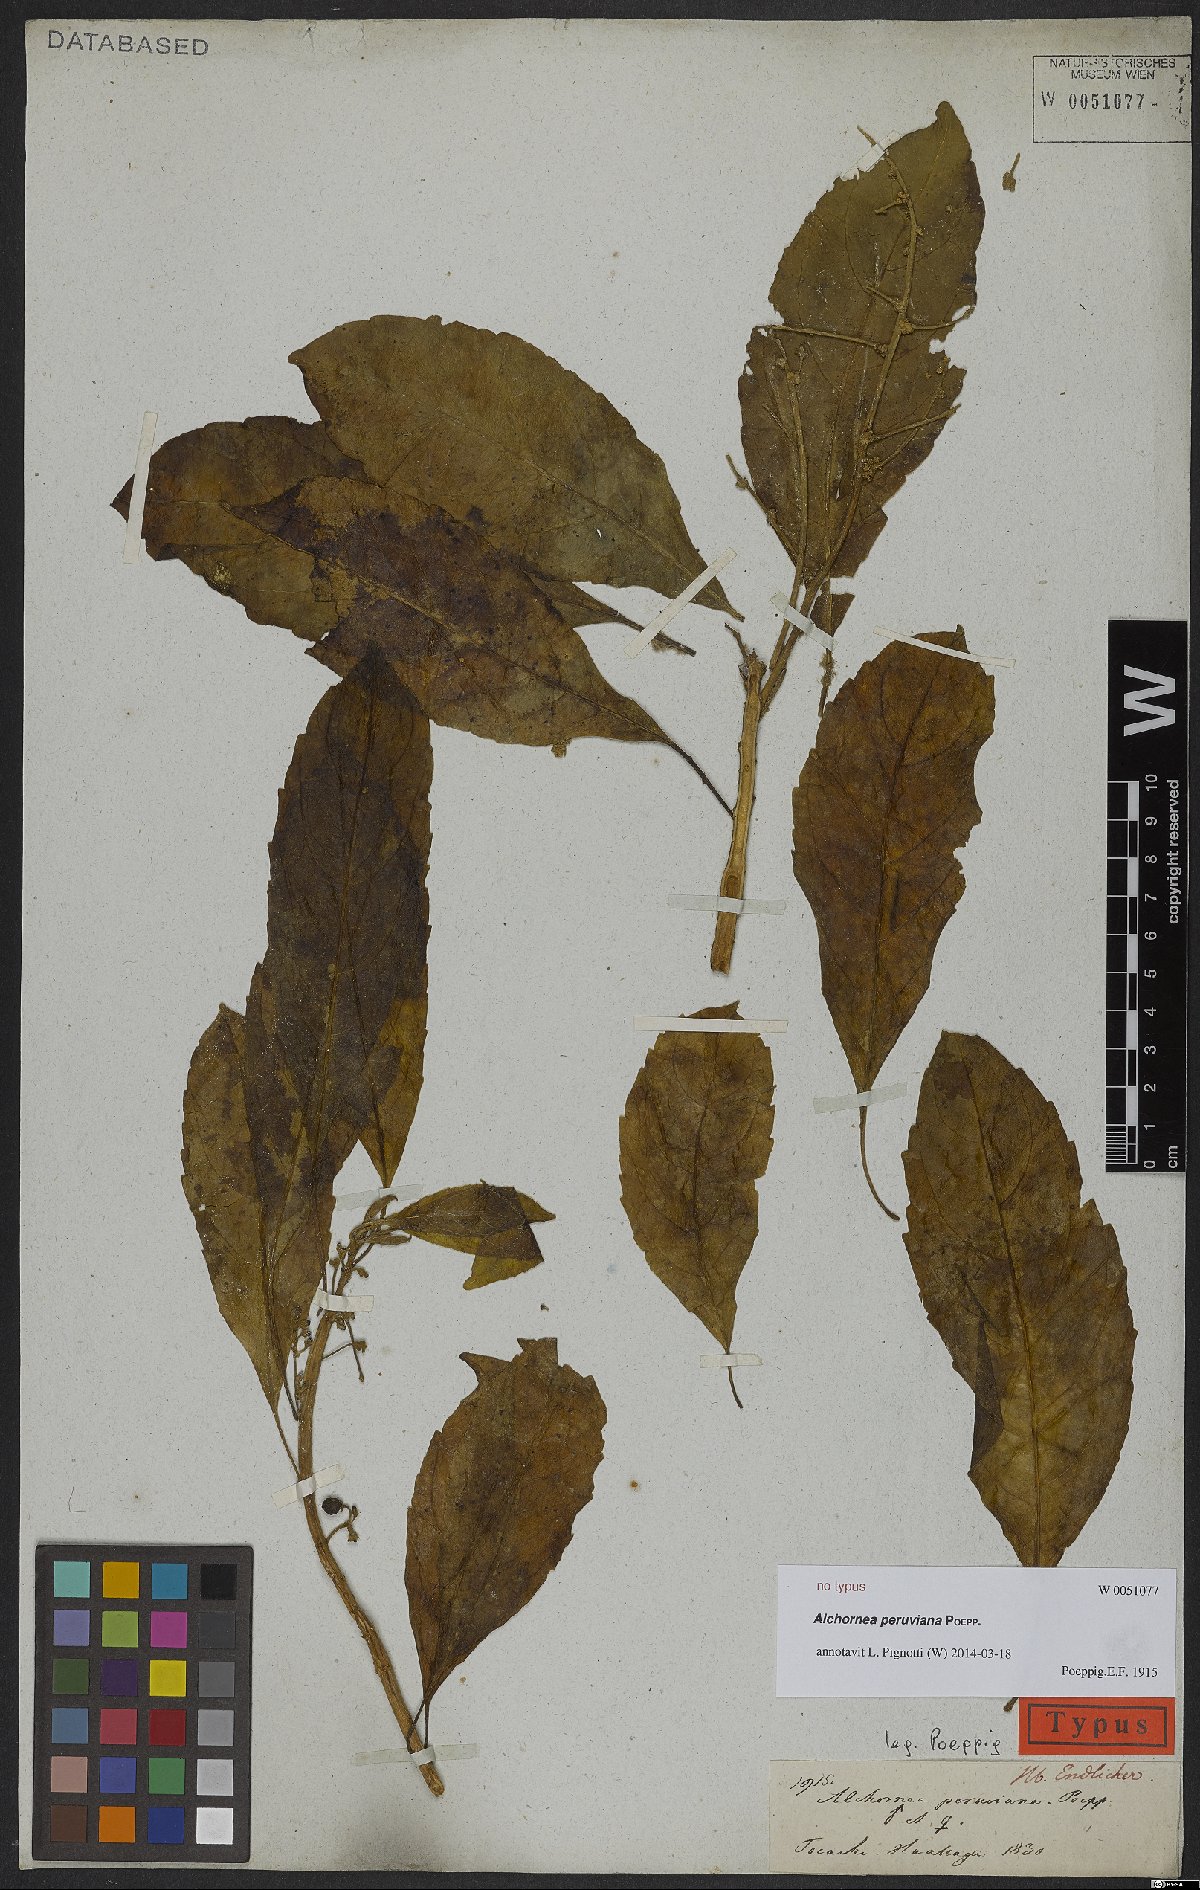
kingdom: Plantae
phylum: Tracheophyta
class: Magnoliopsida
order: Malpighiales
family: Euphorbiaceae
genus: Alchornea
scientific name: Alchornea
